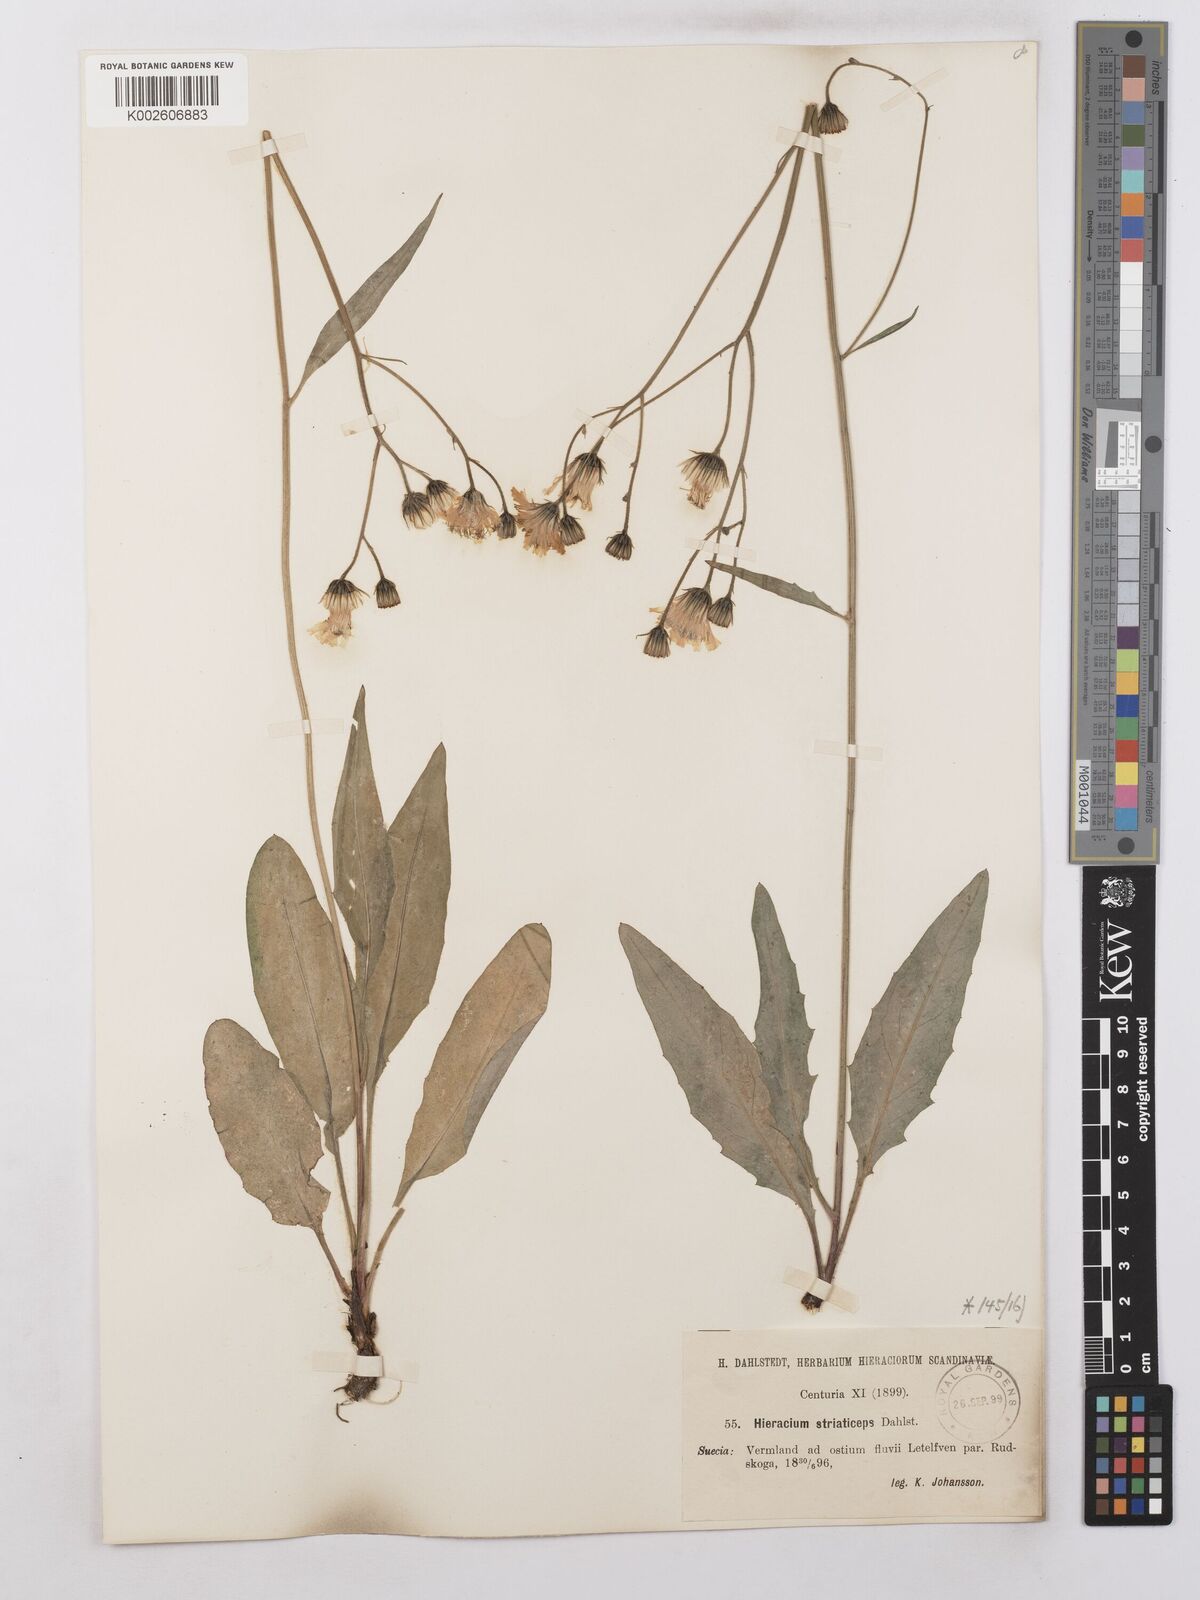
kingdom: Plantae
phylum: Tracheophyta
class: Magnoliopsida
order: Asterales
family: Asteraceae
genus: Hieracium
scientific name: Hieracium levicaule
